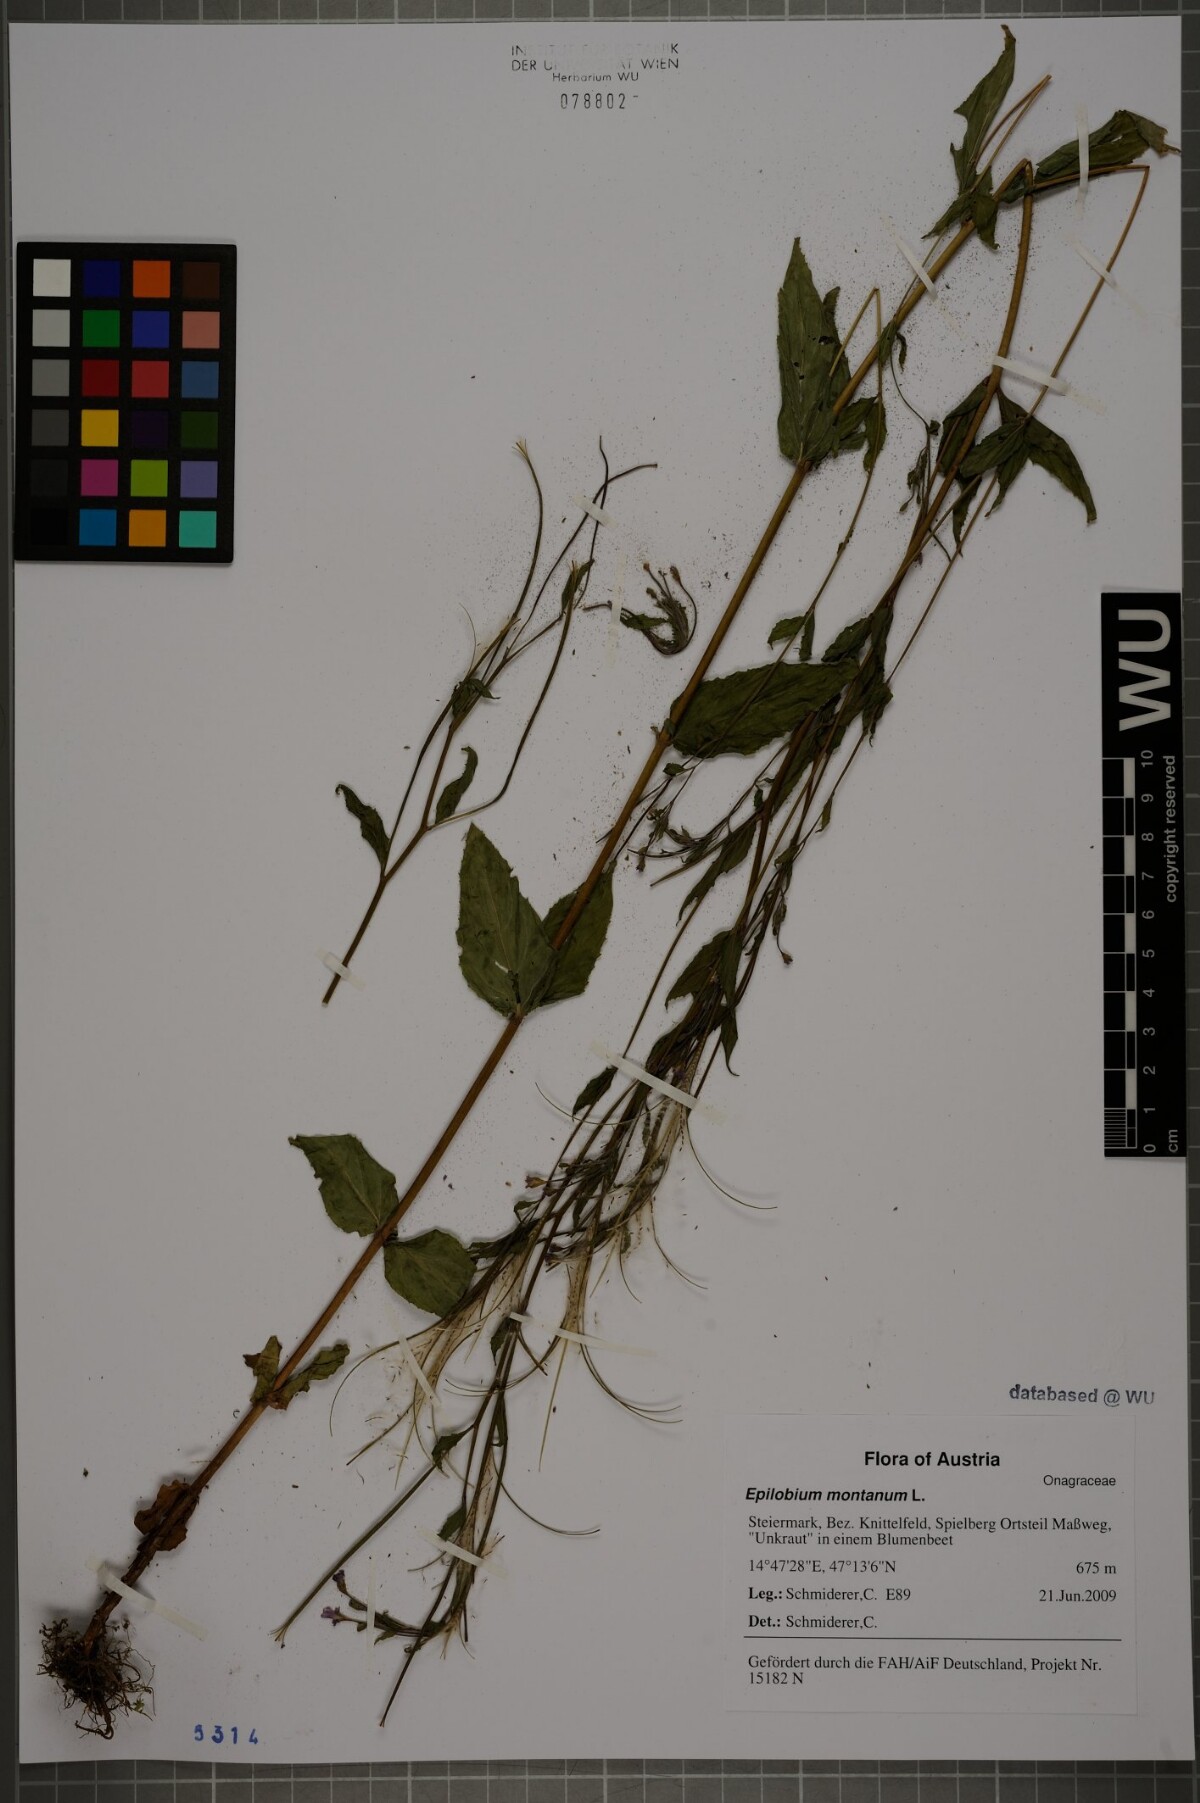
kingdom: Plantae
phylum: Tracheophyta
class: Magnoliopsida
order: Myrtales
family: Onagraceae
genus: Epilobium
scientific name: Epilobium montanum
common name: Broad-leaved willowherb
